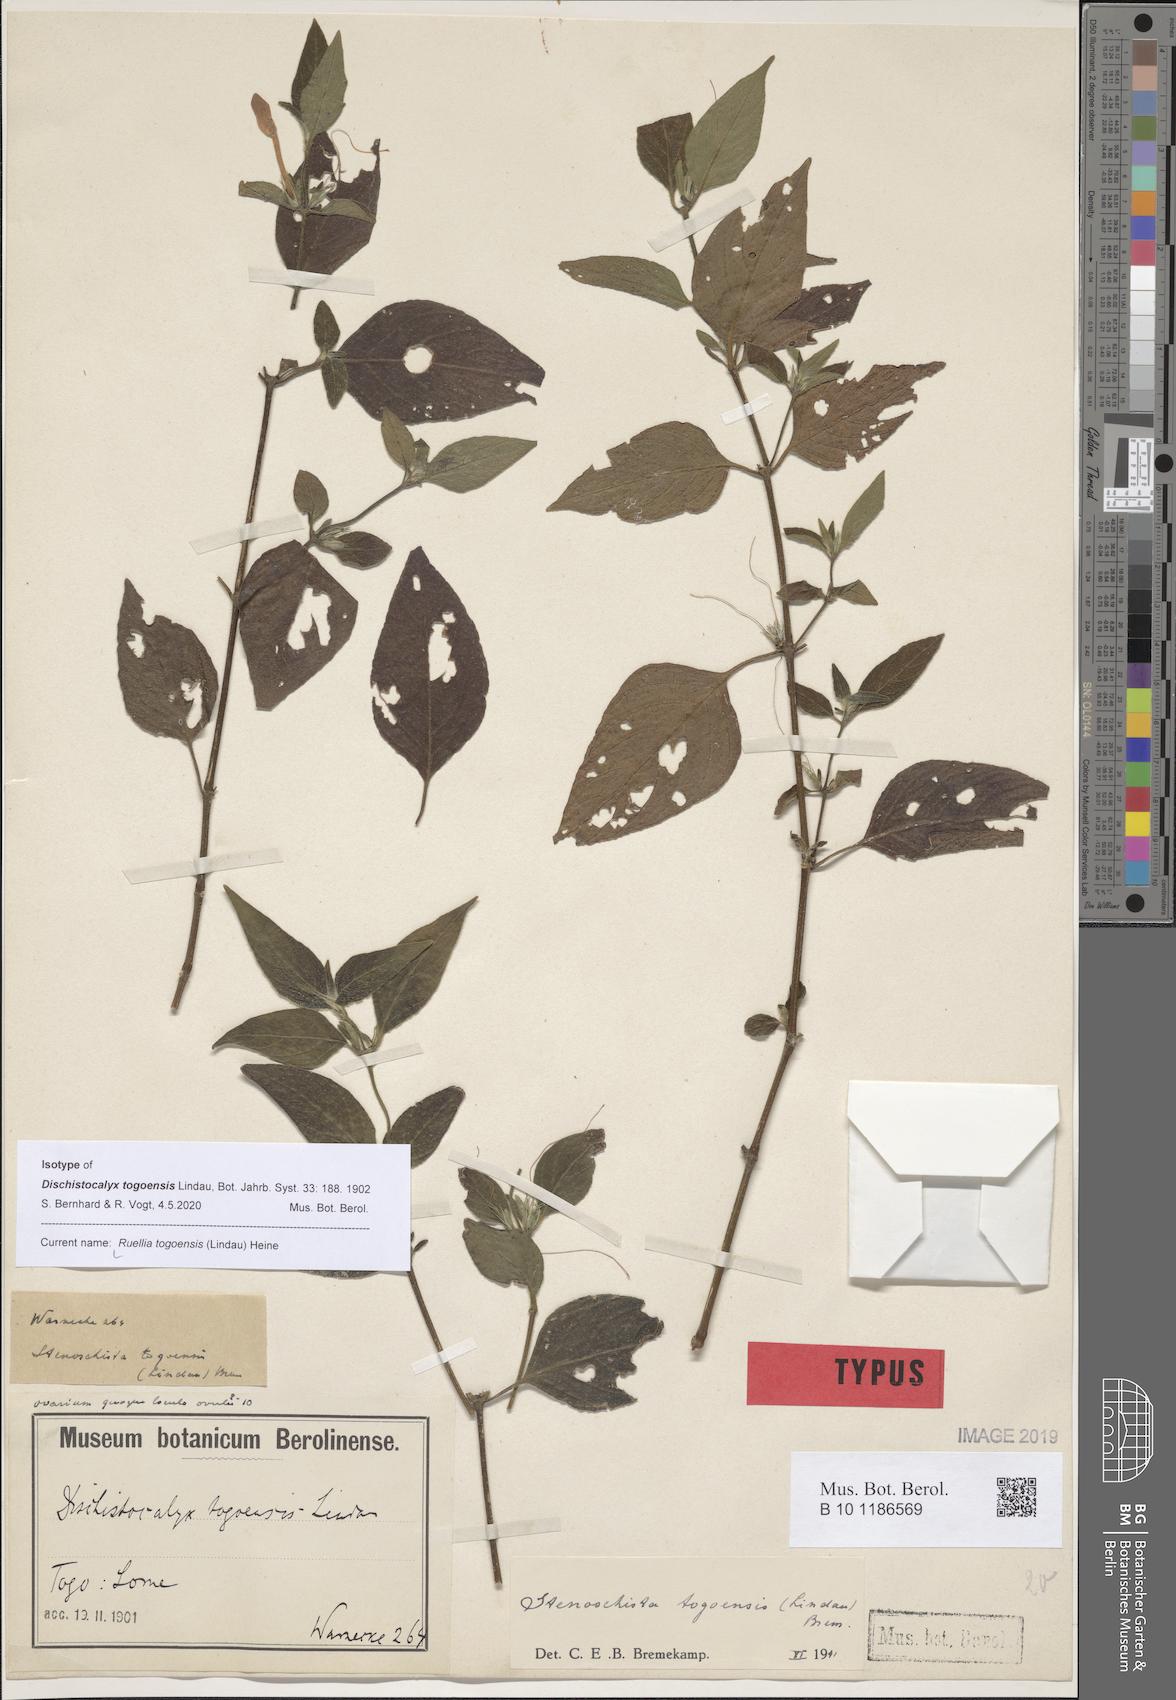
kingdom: Plantae
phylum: Tracheophyta
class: Magnoliopsida
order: Lamiales
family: Acanthaceae
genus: Ruellia
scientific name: Ruellia togoensis
